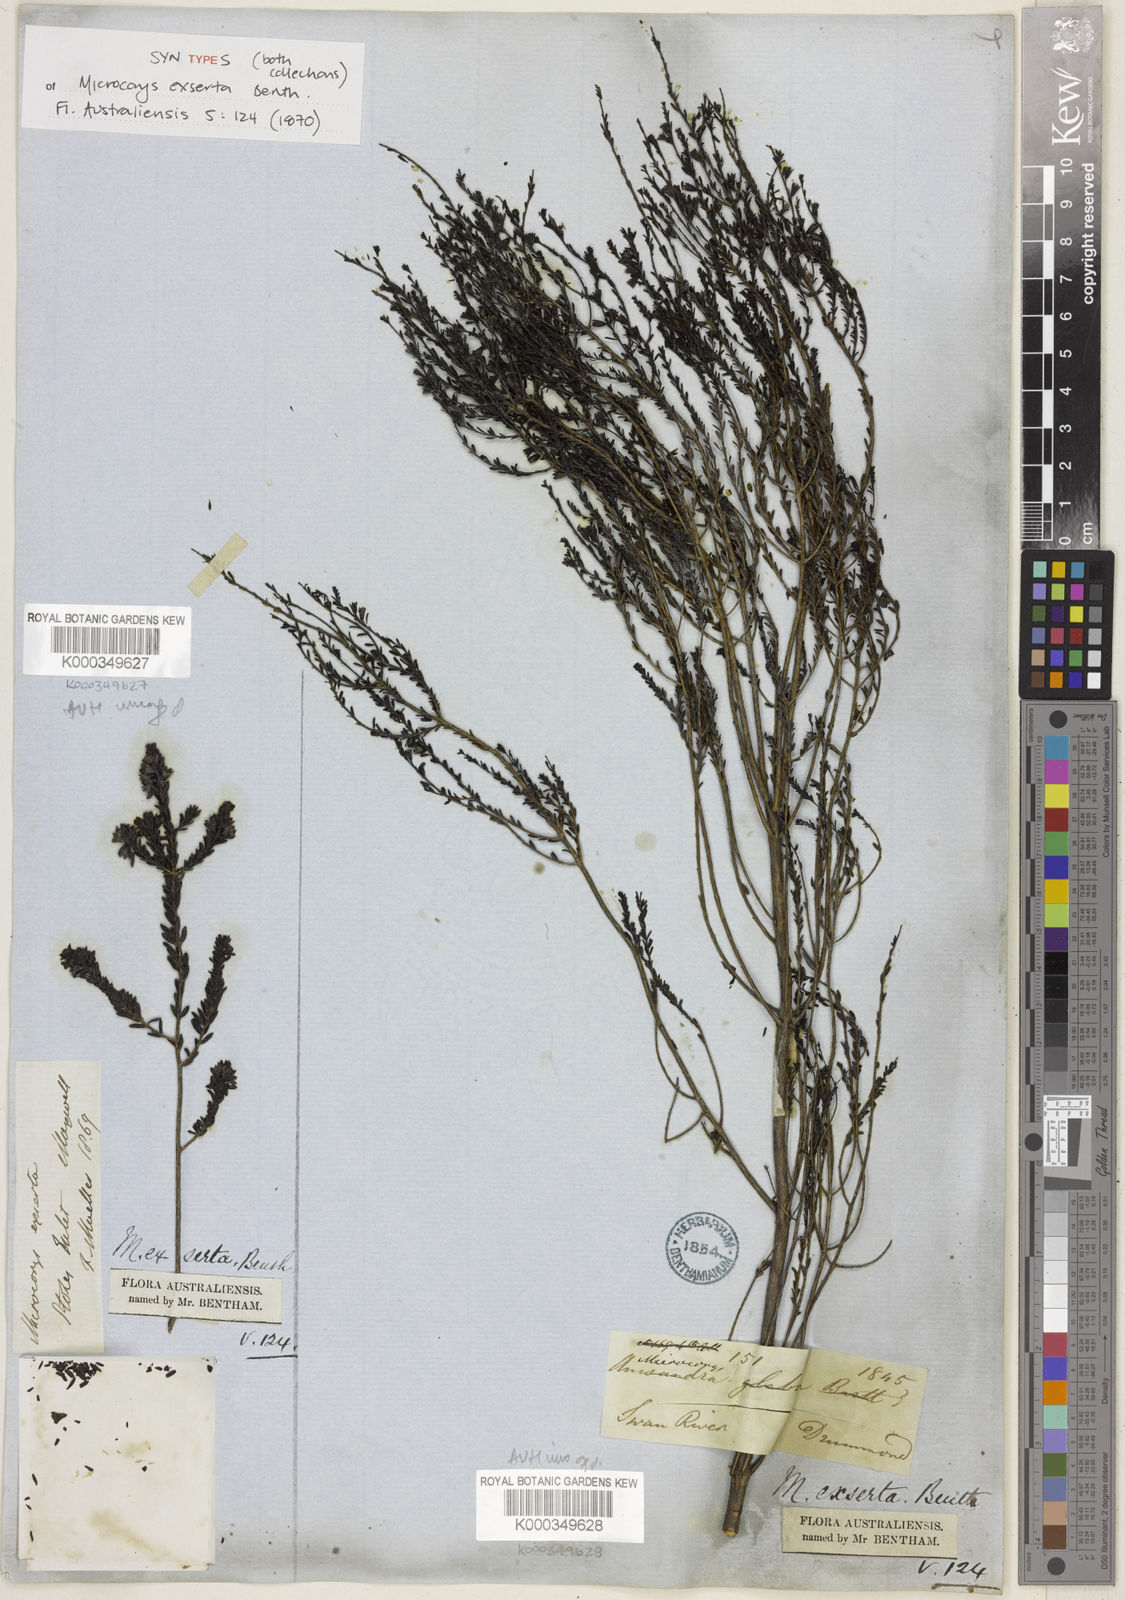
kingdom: Plantae
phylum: Tracheophyta
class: Magnoliopsida
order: Lamiales
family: Lamiaceae
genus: Microcorys
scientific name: Microcorys exserta
